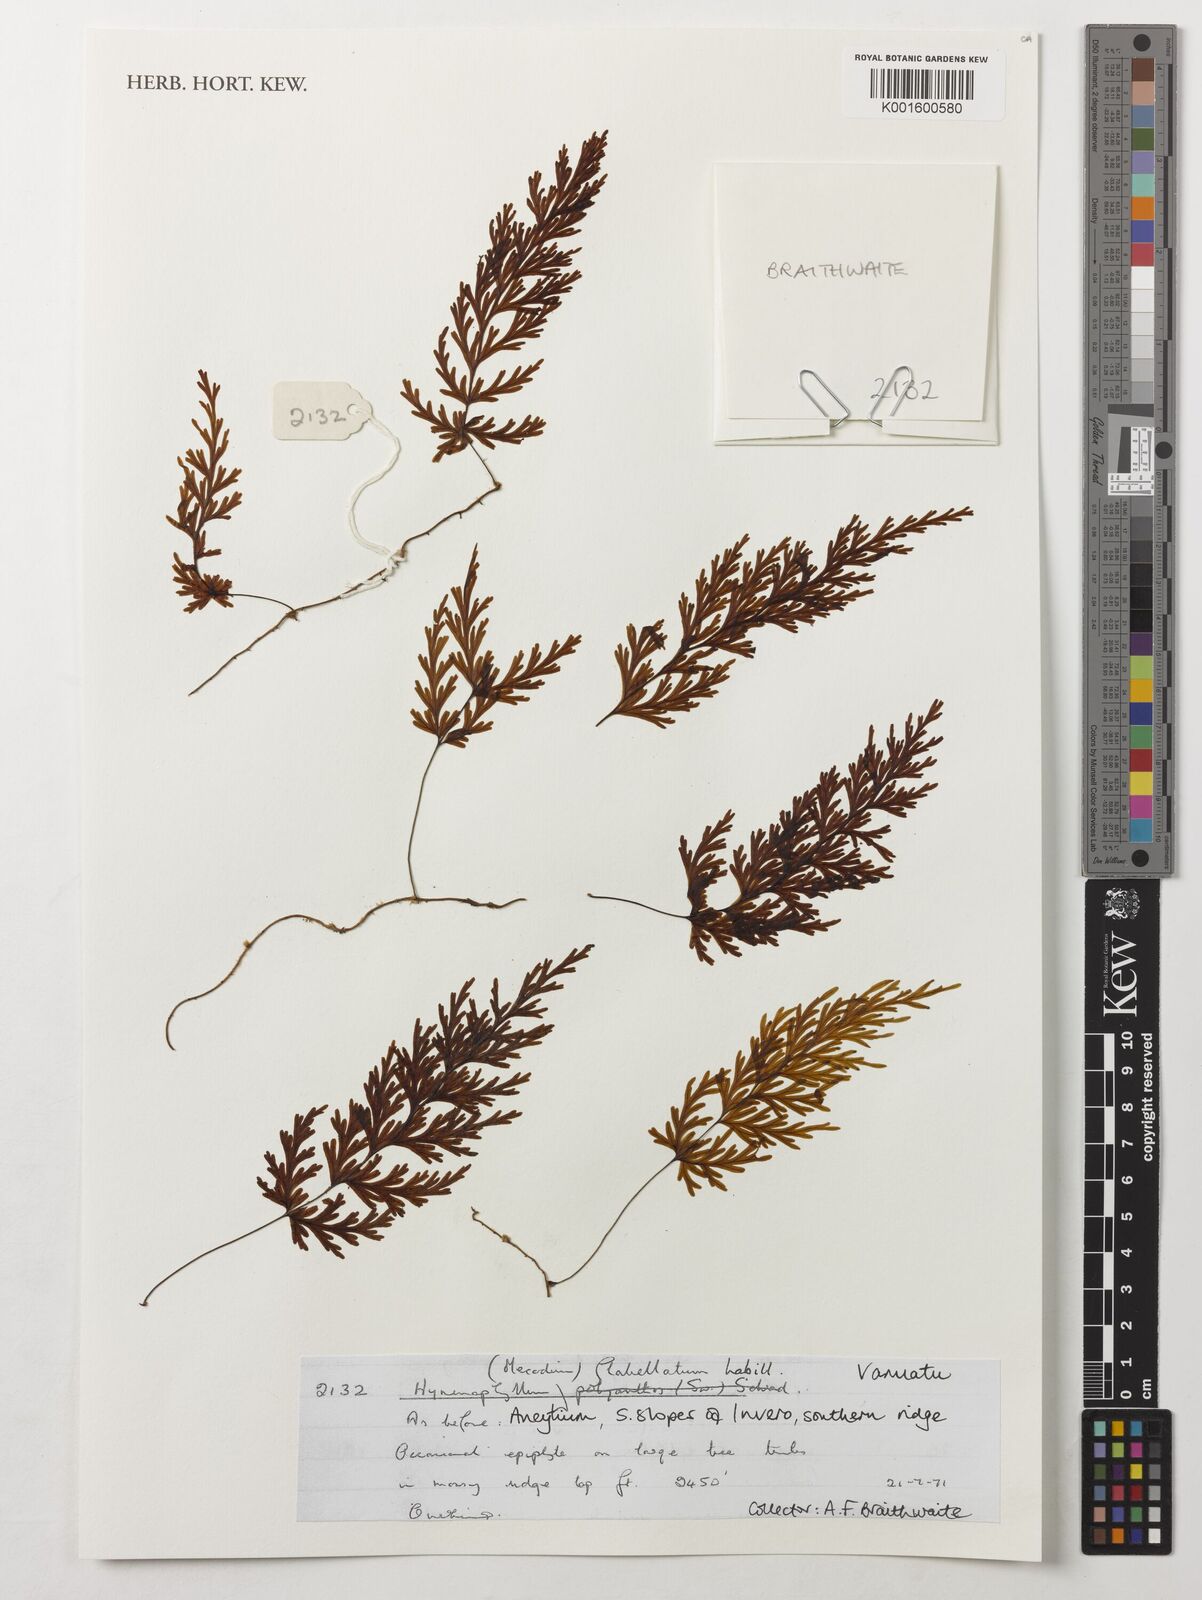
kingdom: Plantae
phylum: Tracheophyta
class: Polypodiopsida
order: Hymenophyllales
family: Hymenophyllaceae
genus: Hymenophyllum
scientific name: Hymenophyllum flabellatum
